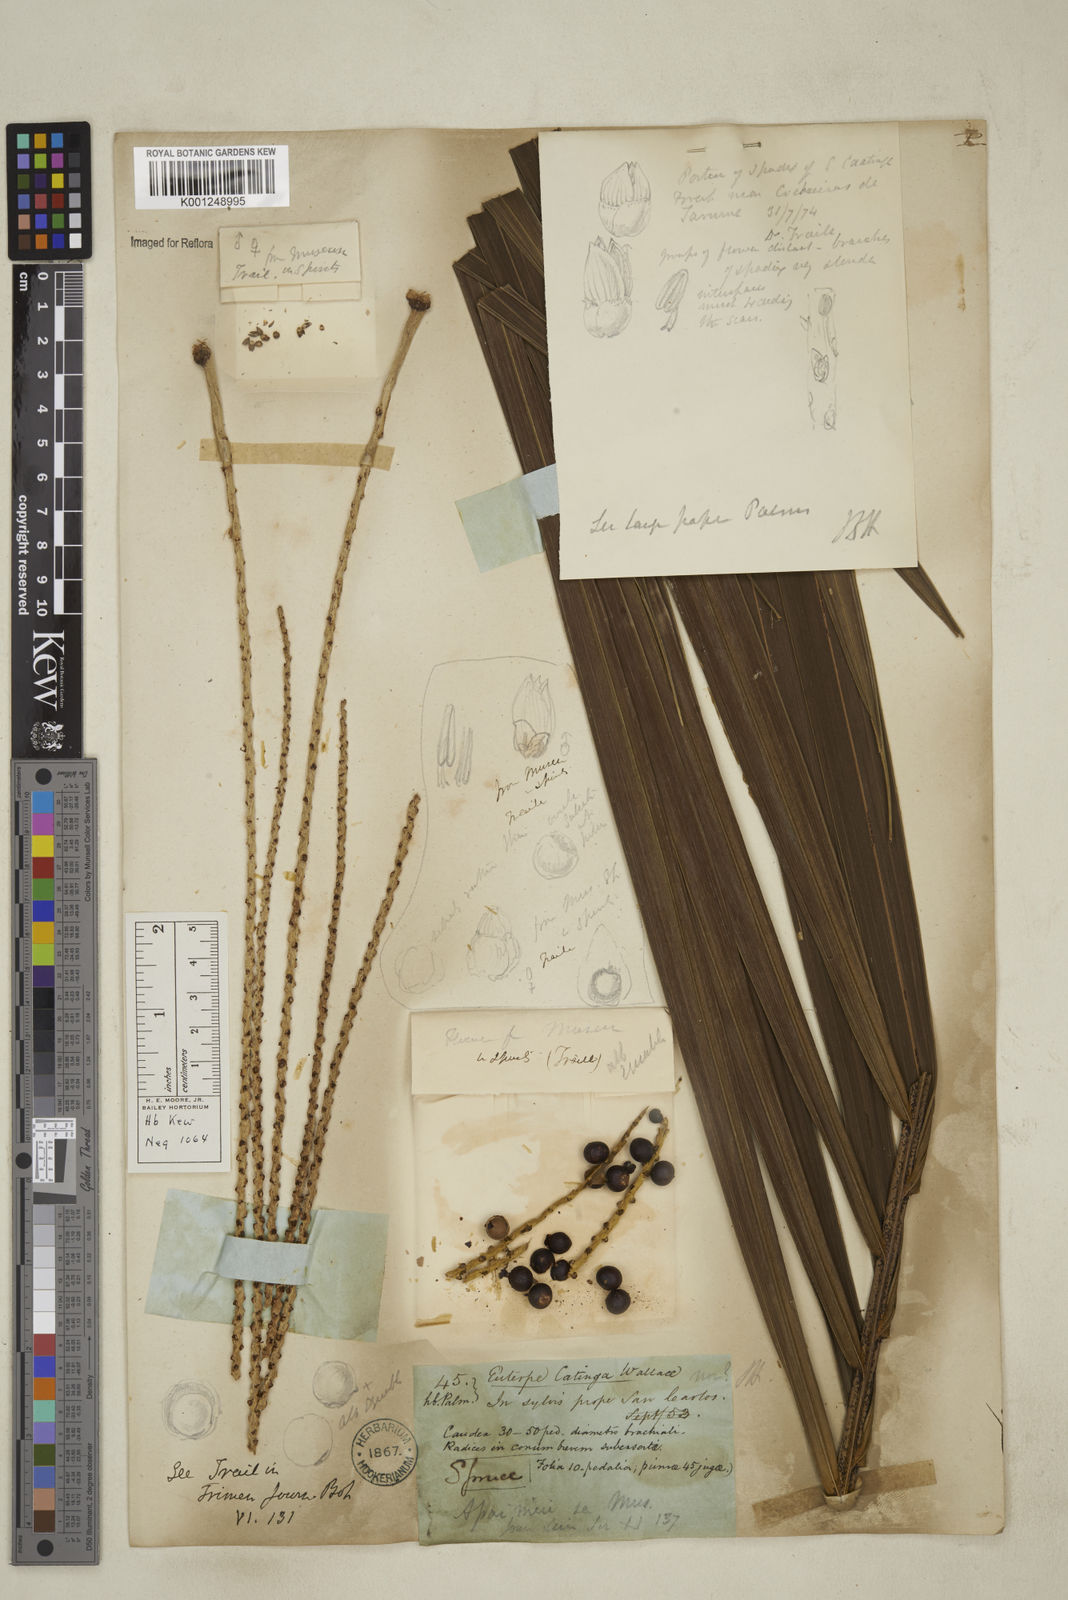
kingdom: Plantae
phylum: Tracheophyta
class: Liliopsida
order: Arecales
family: Arecaceae
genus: Euterpe
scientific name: Euterpe catinga
